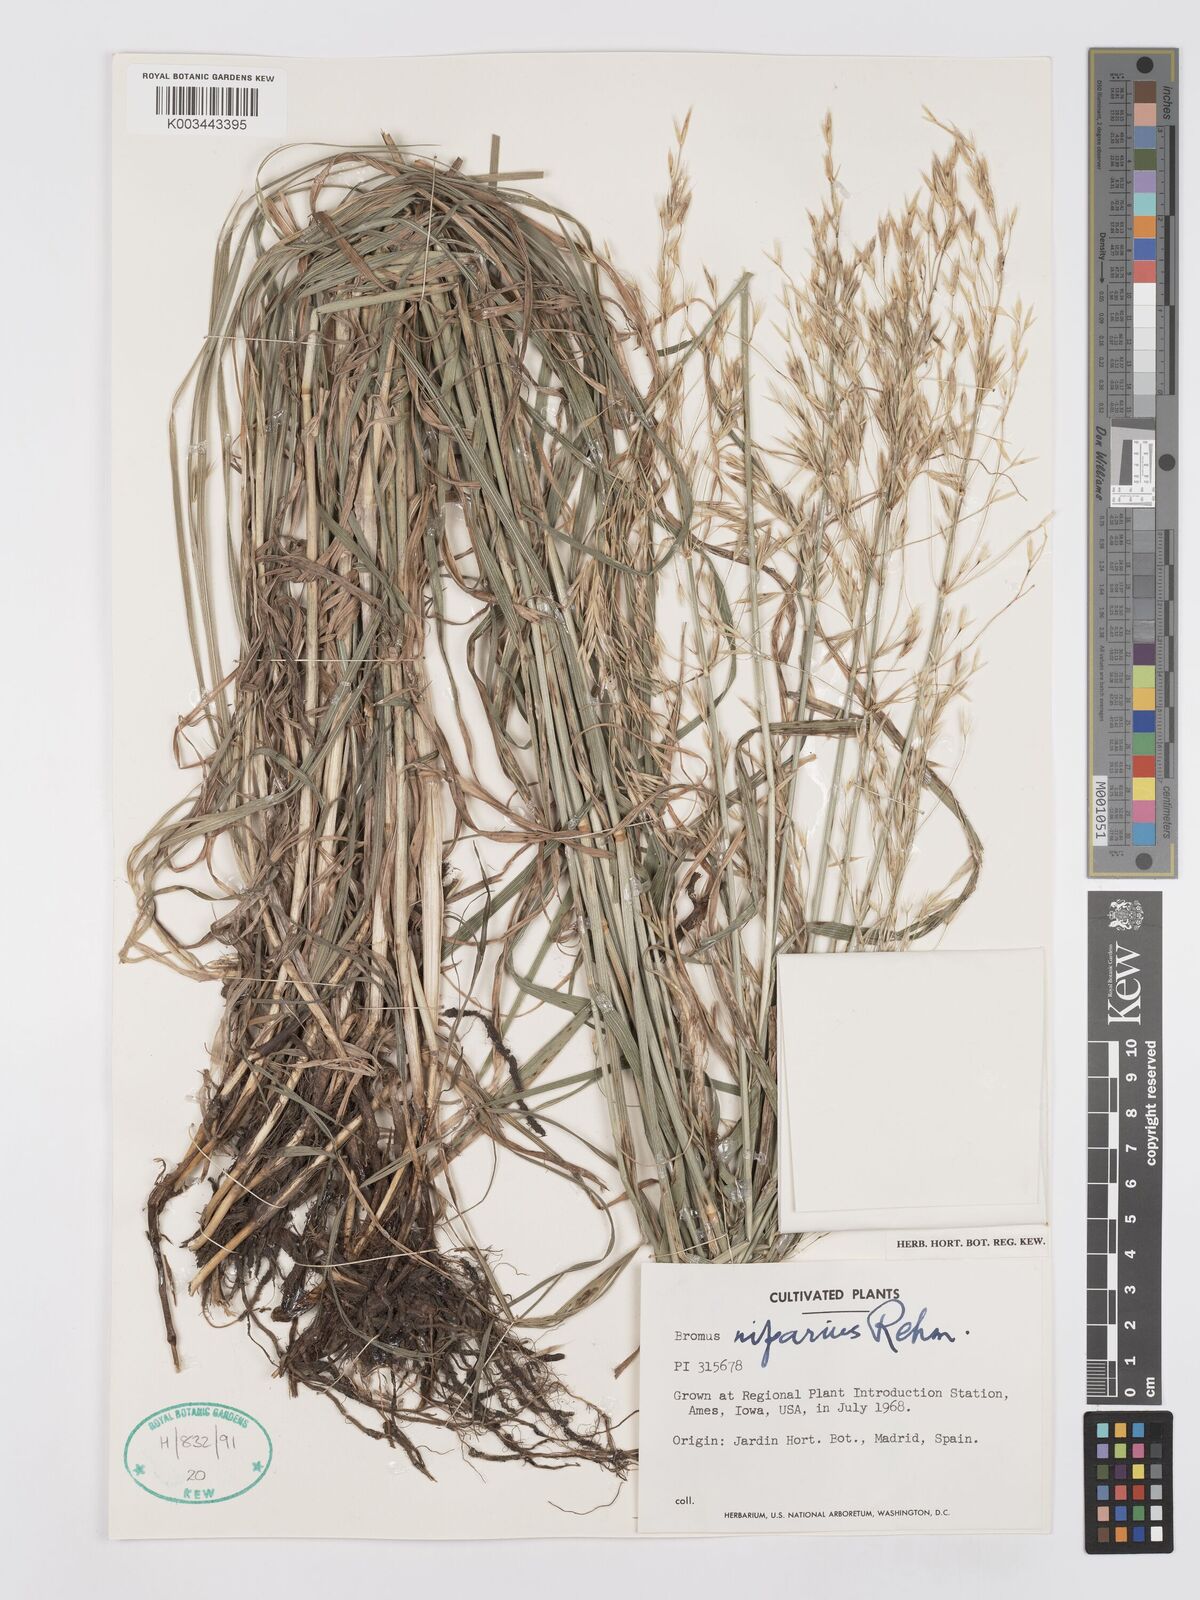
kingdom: Plantae
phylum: Tracheophyta
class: Liliopsida
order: Poales
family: Poaceae
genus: Bromus
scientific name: Bromus riparius
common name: Meadow brome
